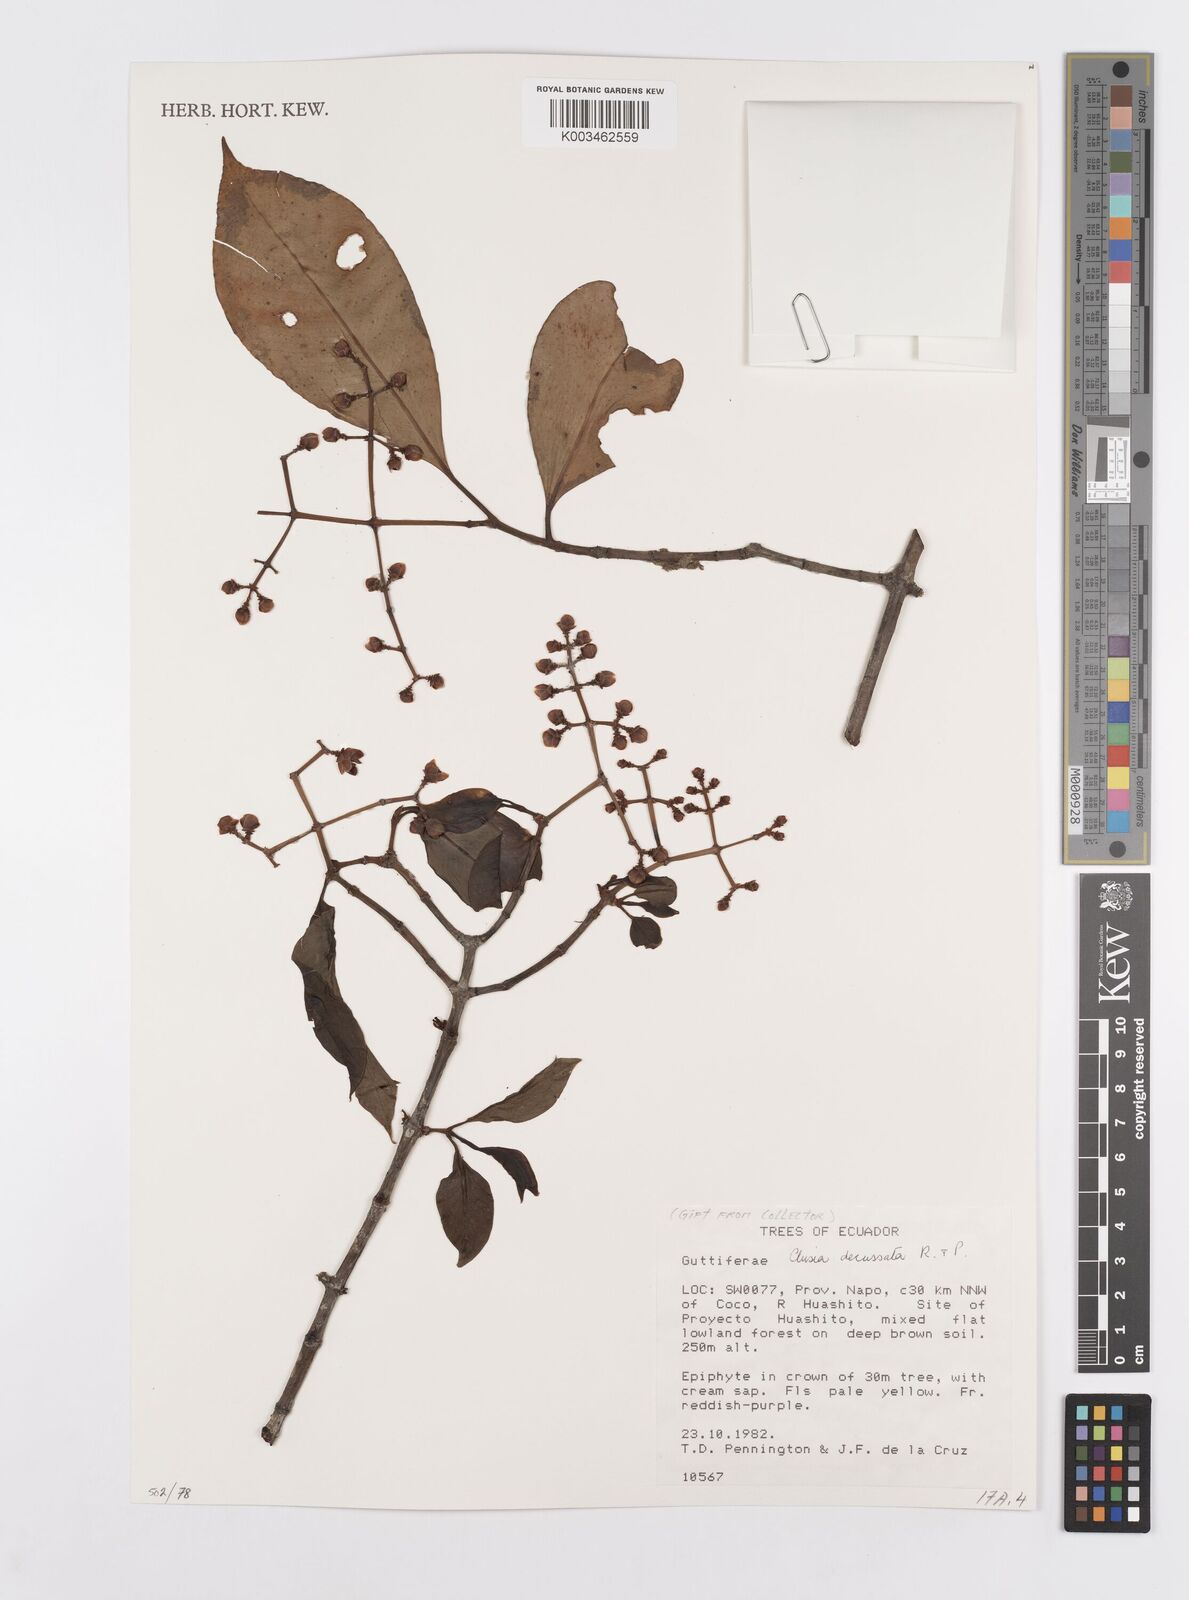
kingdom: Plantae
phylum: Tracheophyta
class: Magnoliopsida
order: Malpighiales
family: Clusiaceae
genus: Clusia
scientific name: Clusia decussata
